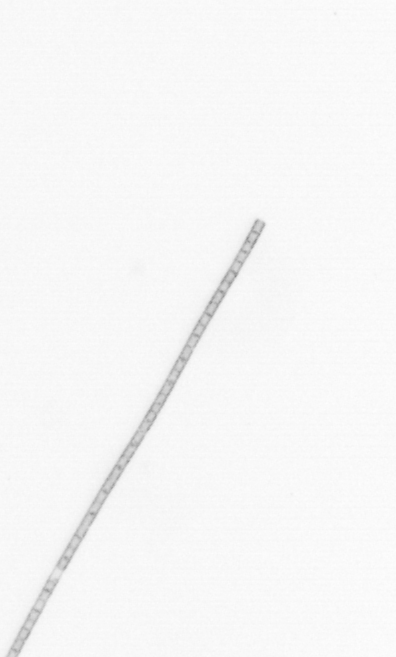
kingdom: Chromista
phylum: Ochrophyta
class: Bacillariophyceae
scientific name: Bacillariophyceae
